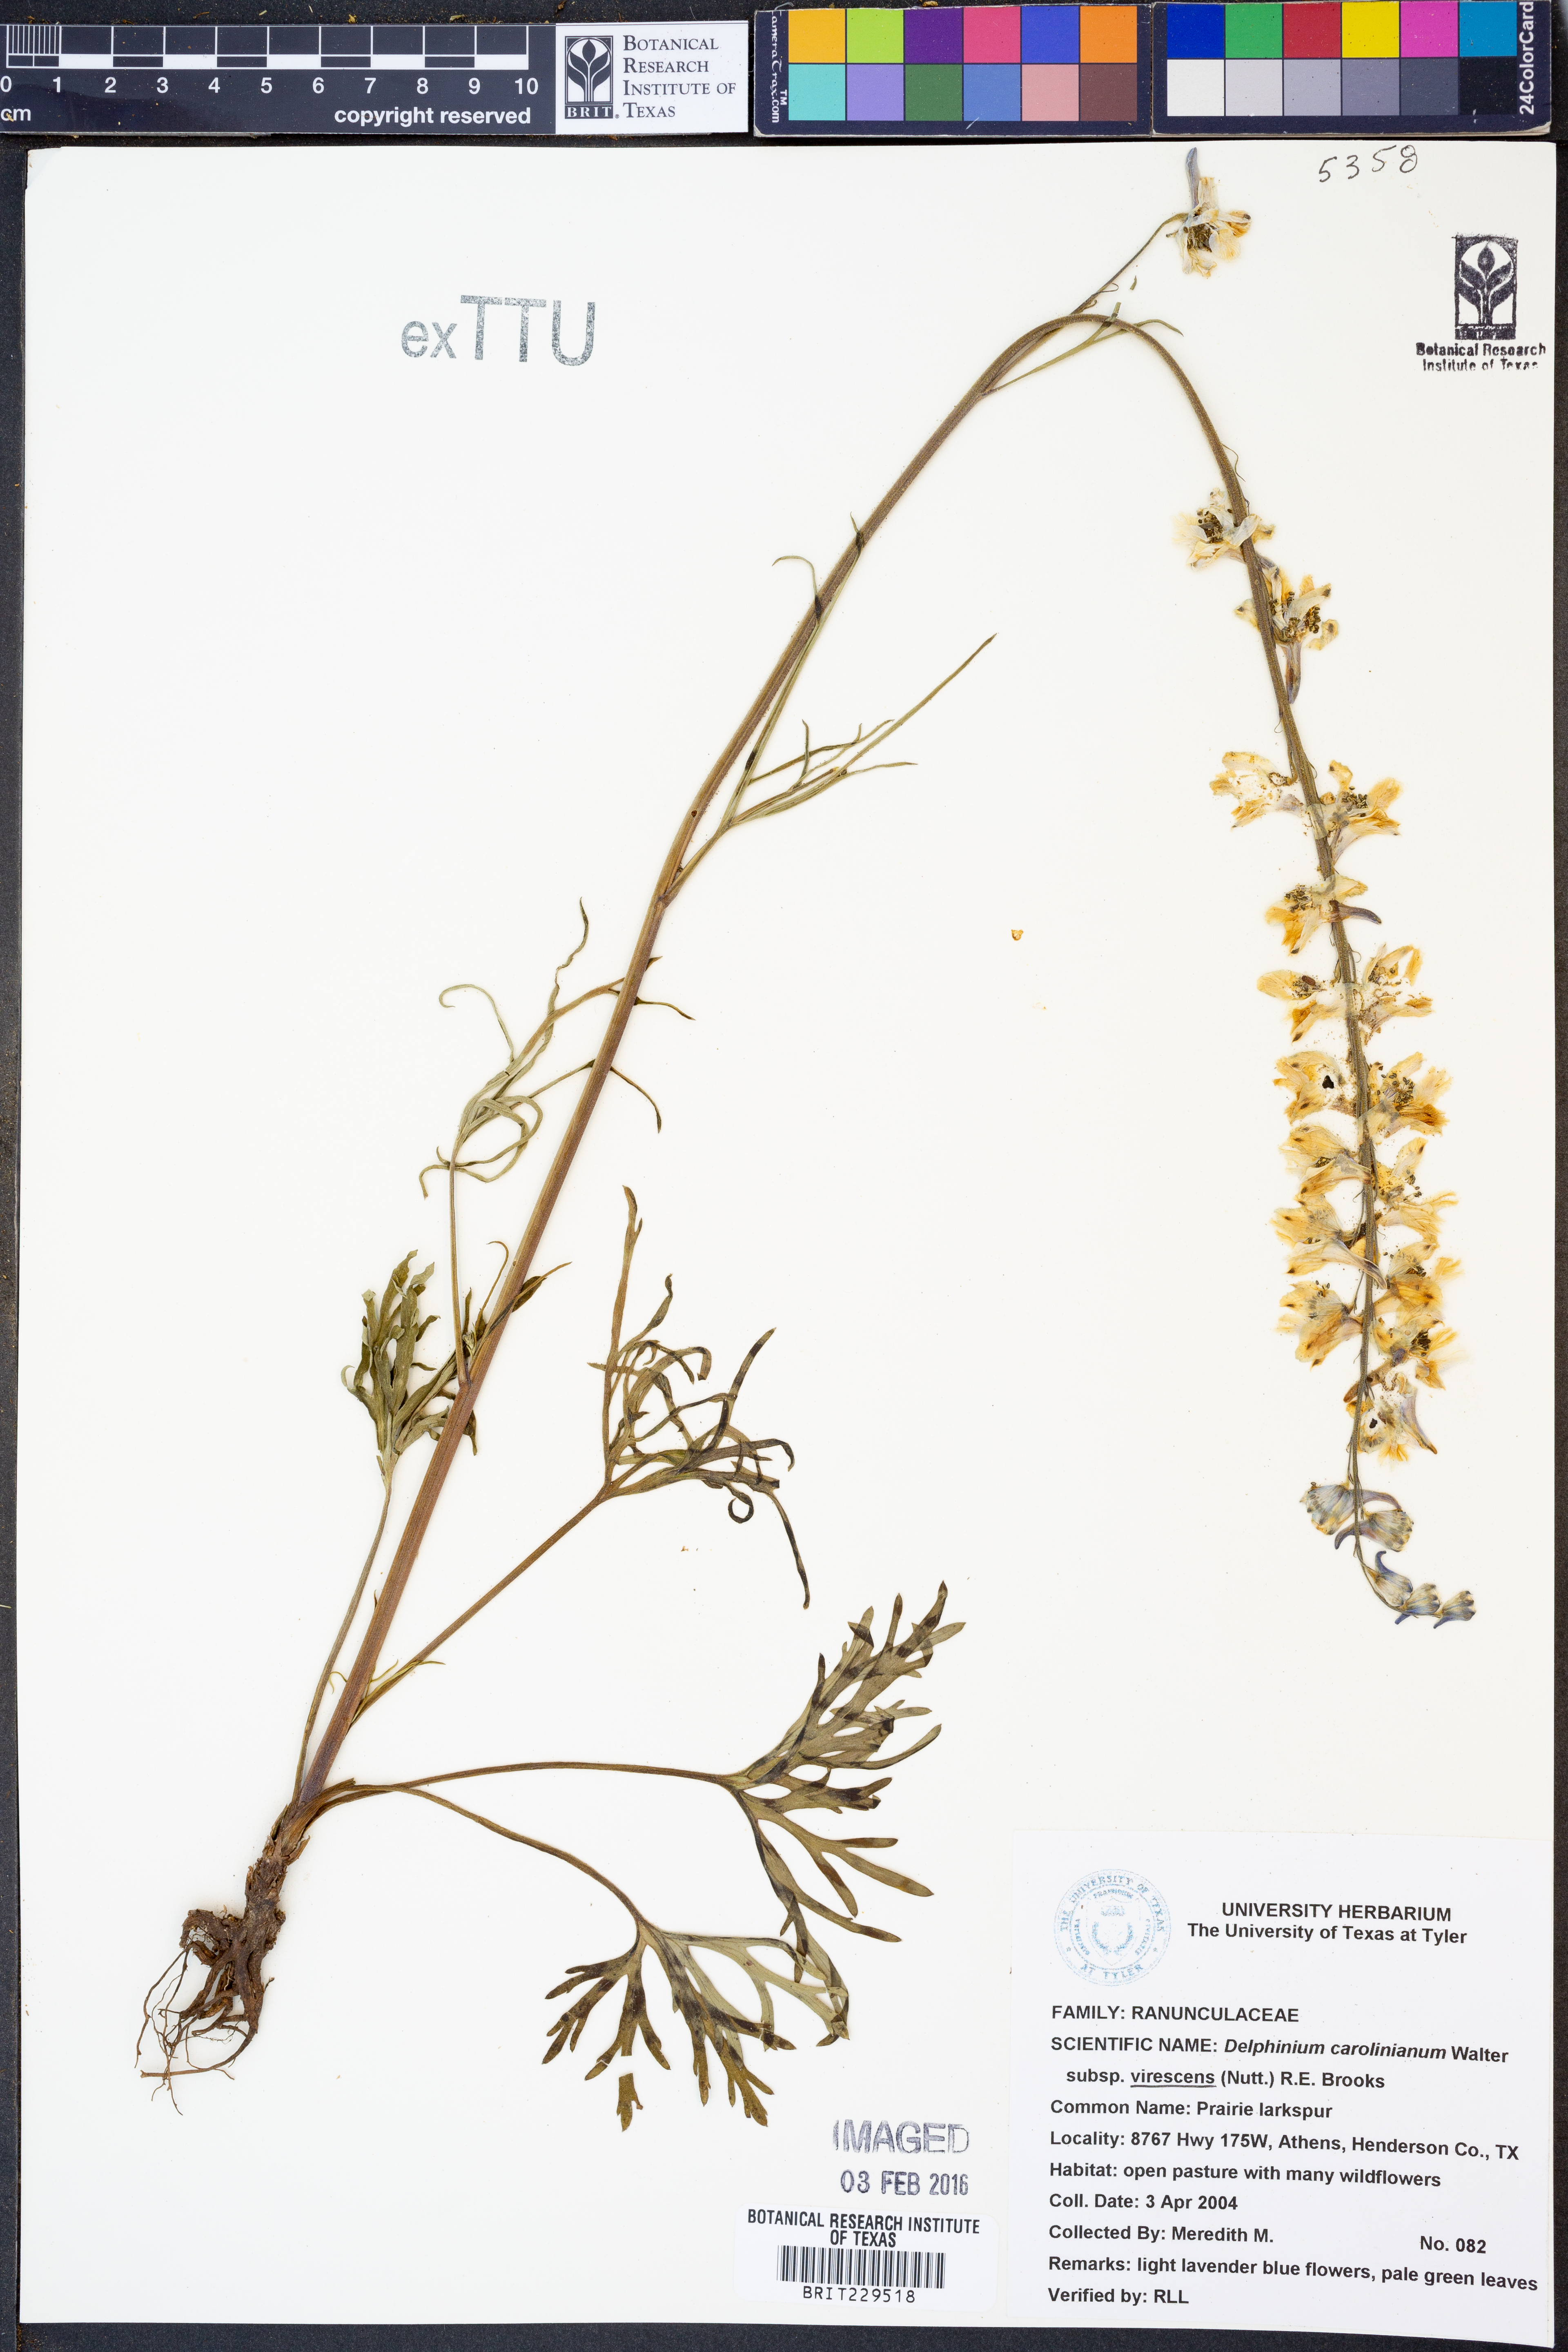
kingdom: Plantae
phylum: Tracheophyta
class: Magnoliopsida
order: Ranunculales
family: Ranunculaceae
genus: Delphinium
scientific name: Delphinium carolinianum
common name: Carolina larkspur
